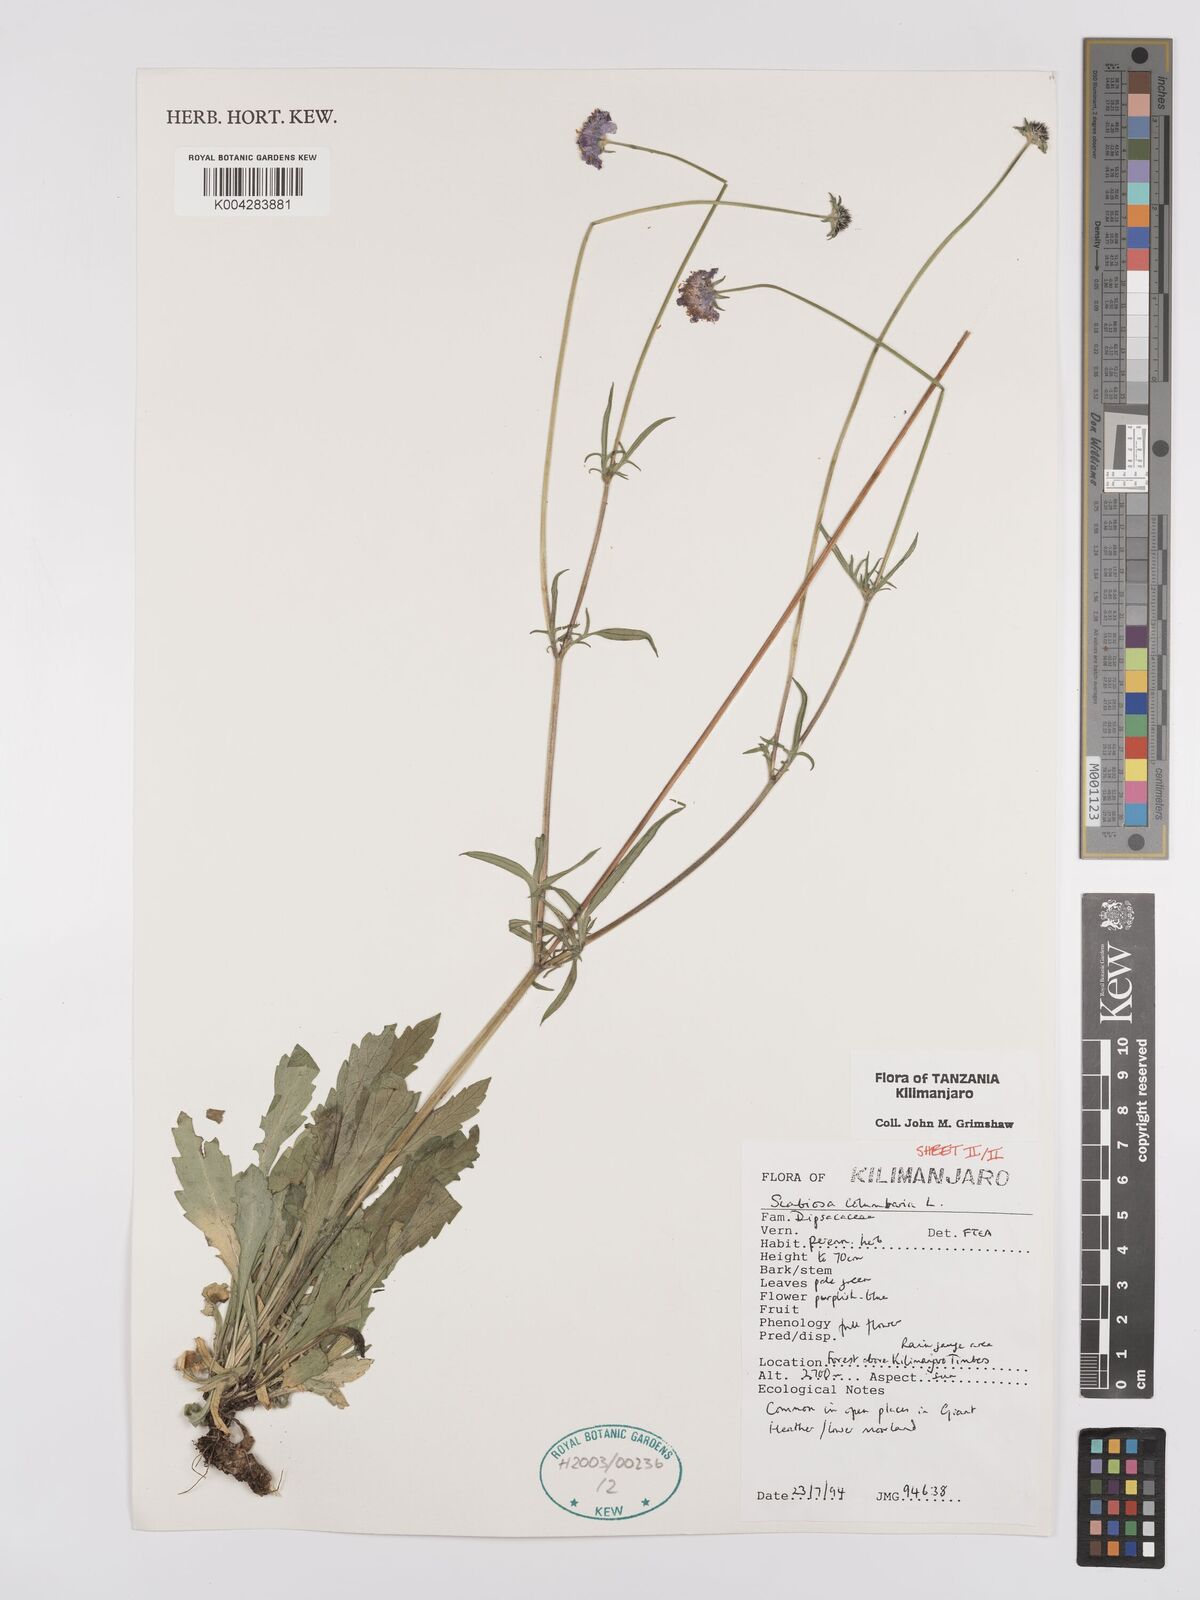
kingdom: Plantae
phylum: Tracheophyta
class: Magnoliopsida
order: Dipsacales
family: Caprifoliaceae
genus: Scabiosa
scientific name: Scabiosa austroafricana
